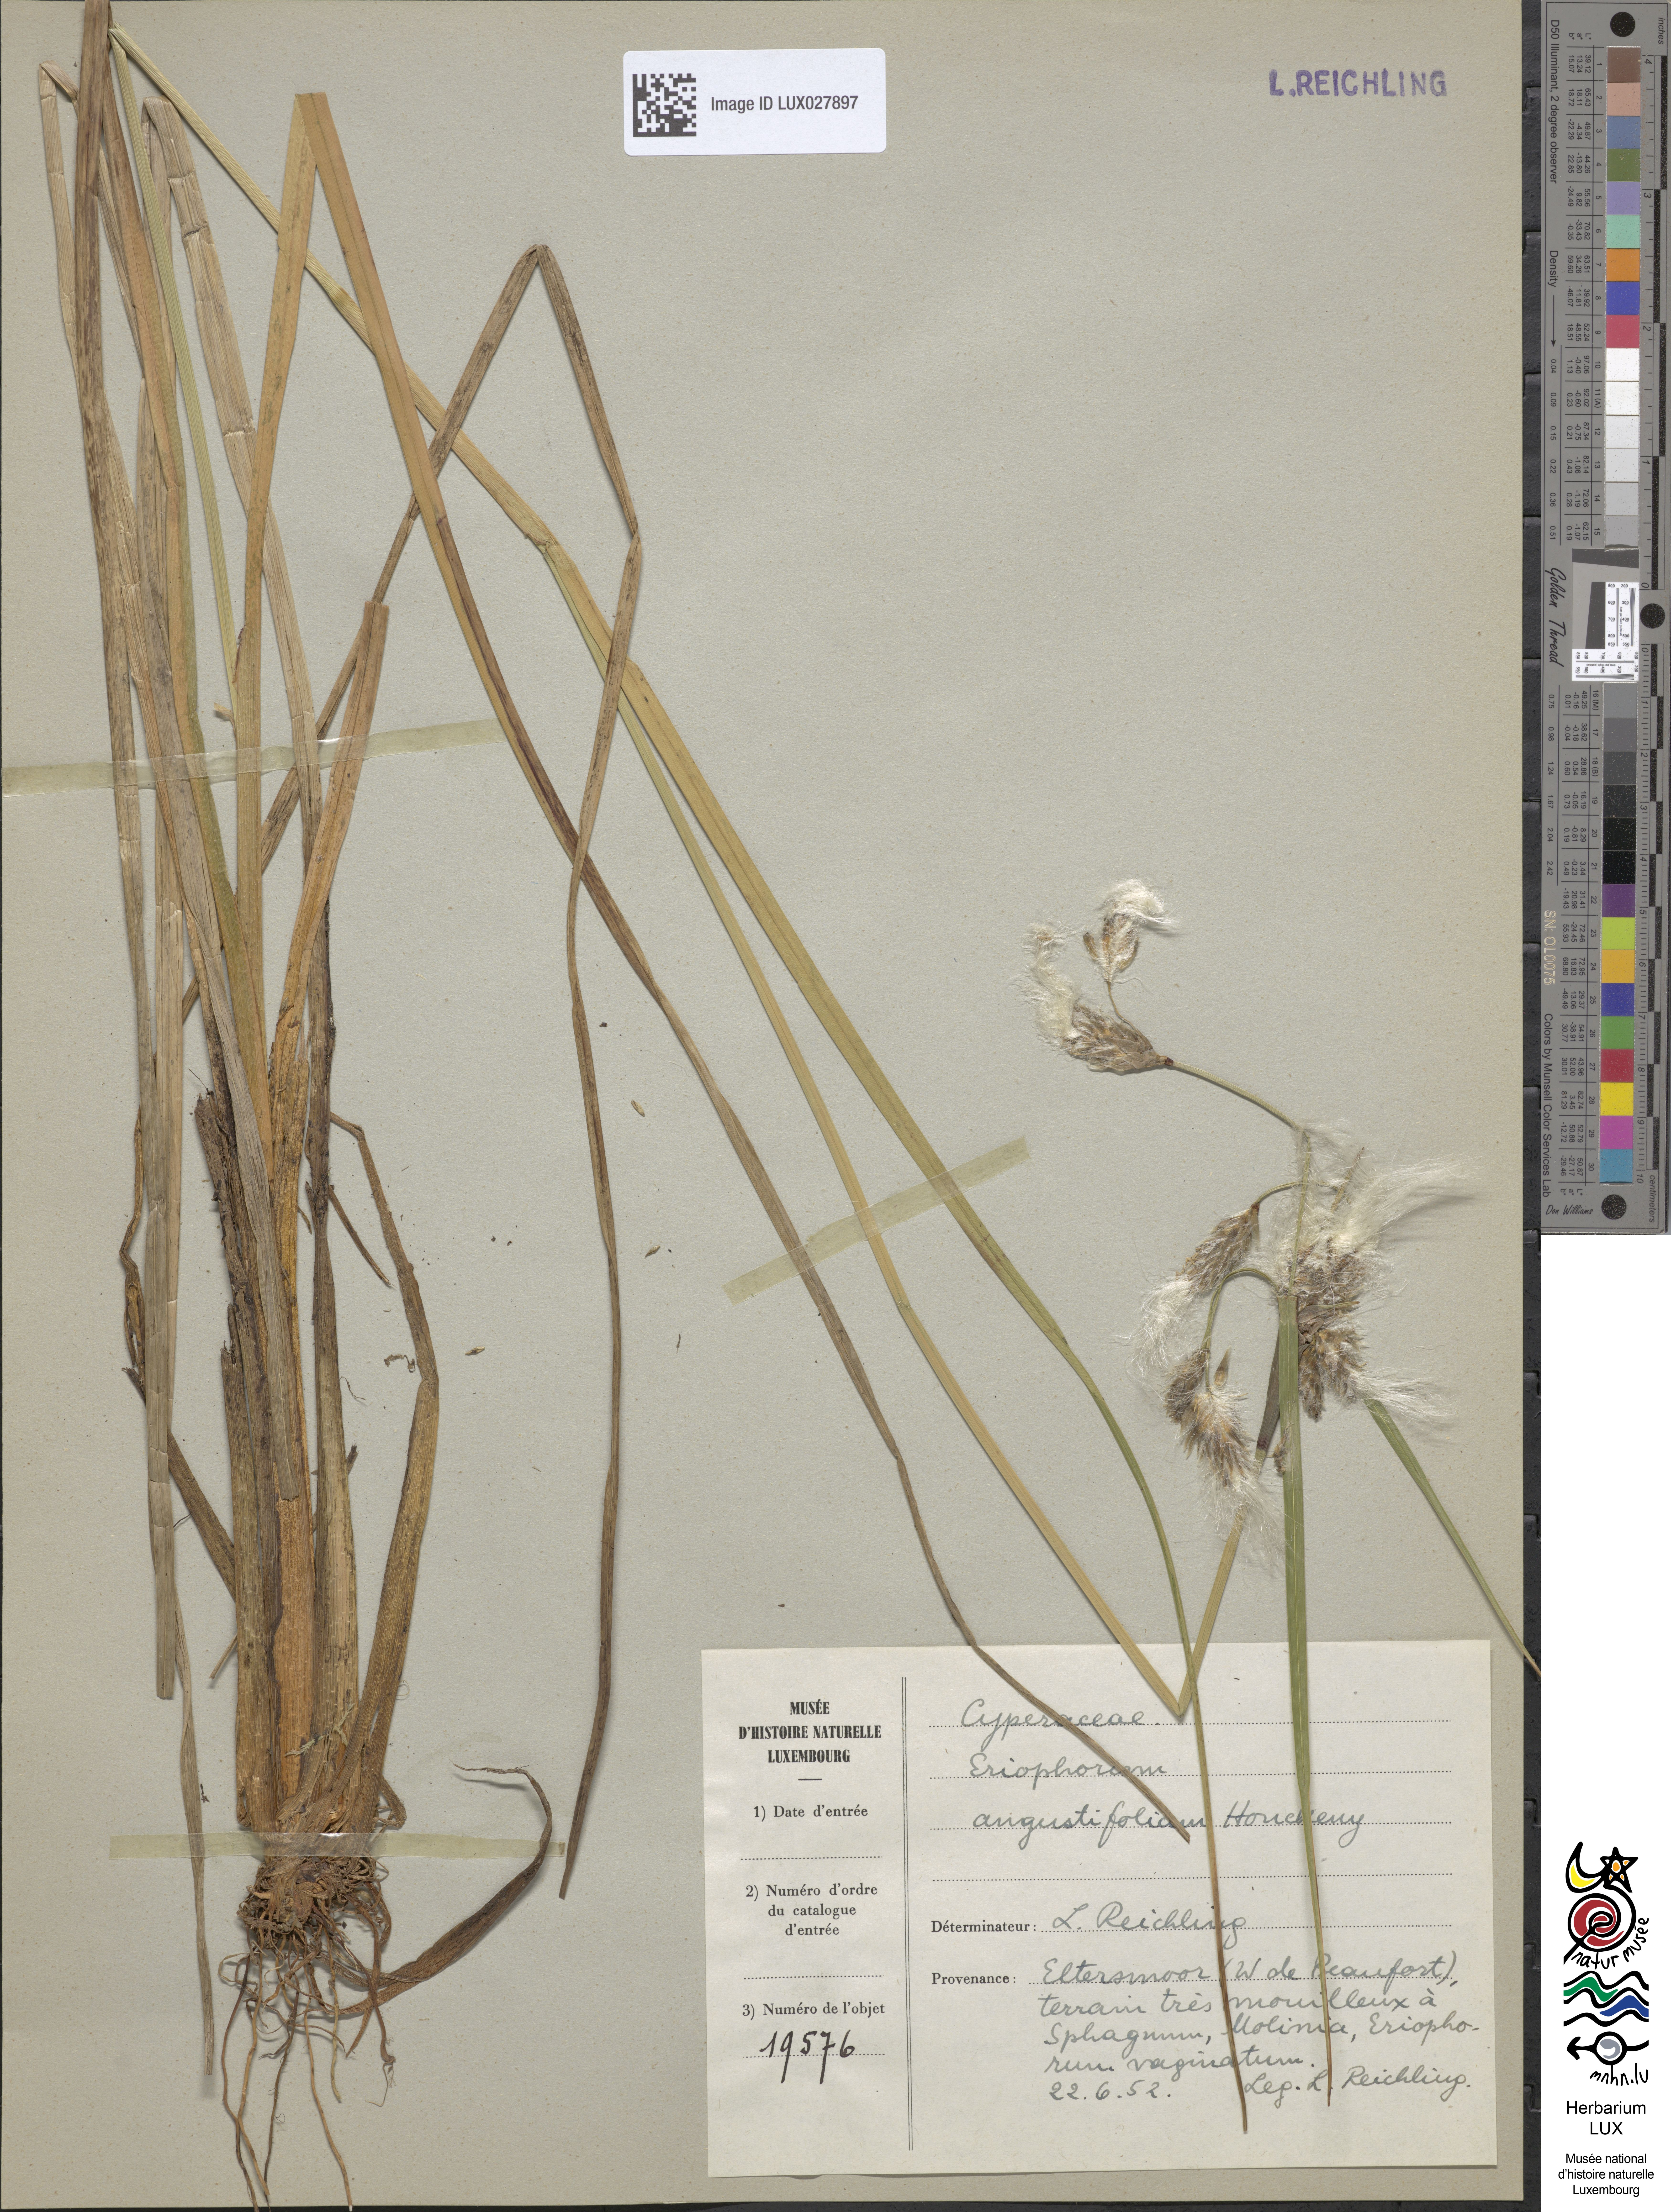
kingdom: Plantae
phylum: Tracheophyta
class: Liliopsida
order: Poales
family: Cyperaceae
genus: Eriophorum
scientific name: Eriophorum angustifolium
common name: Common cottongrass
